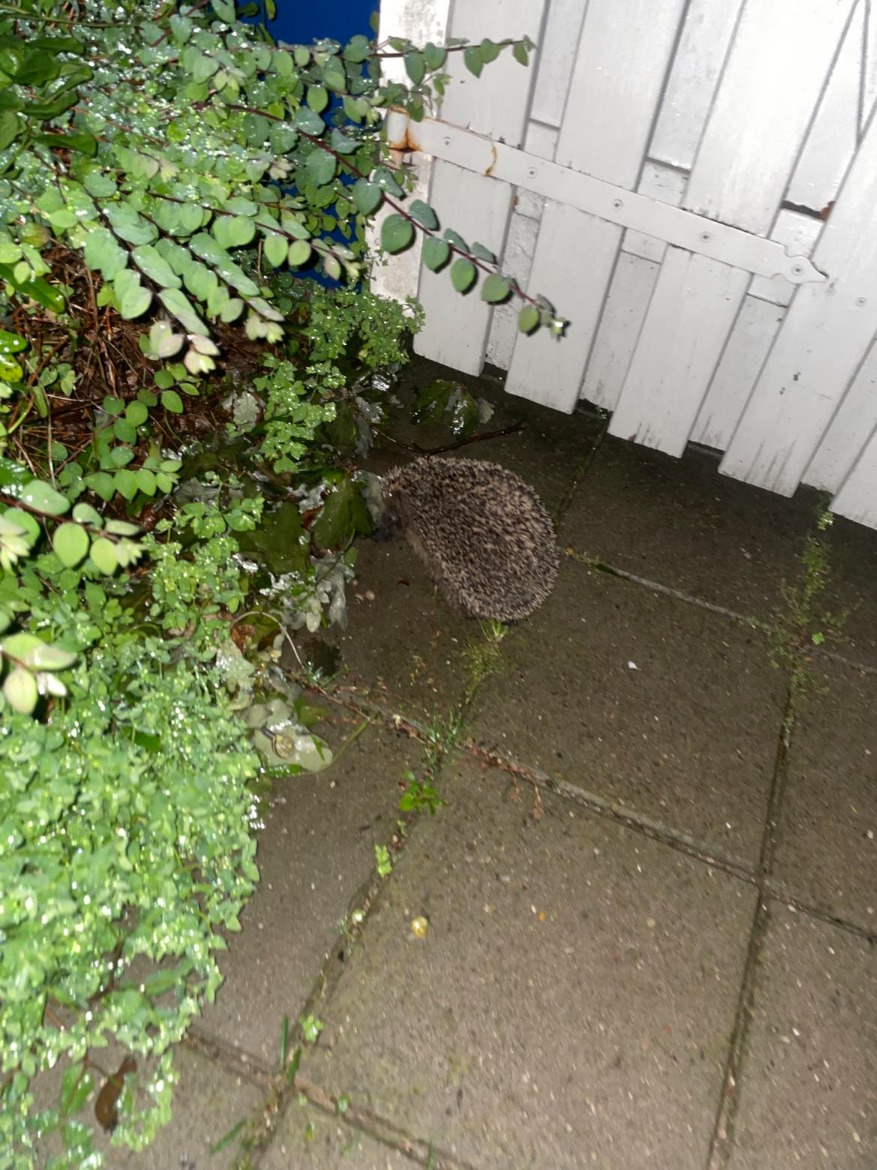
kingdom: Animalia
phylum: Chordata
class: Mammalia
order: Erinaceomorpha
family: Erinaceidae
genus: Erinaceus
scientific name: Erinaceus europaeus
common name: Pindsvin
